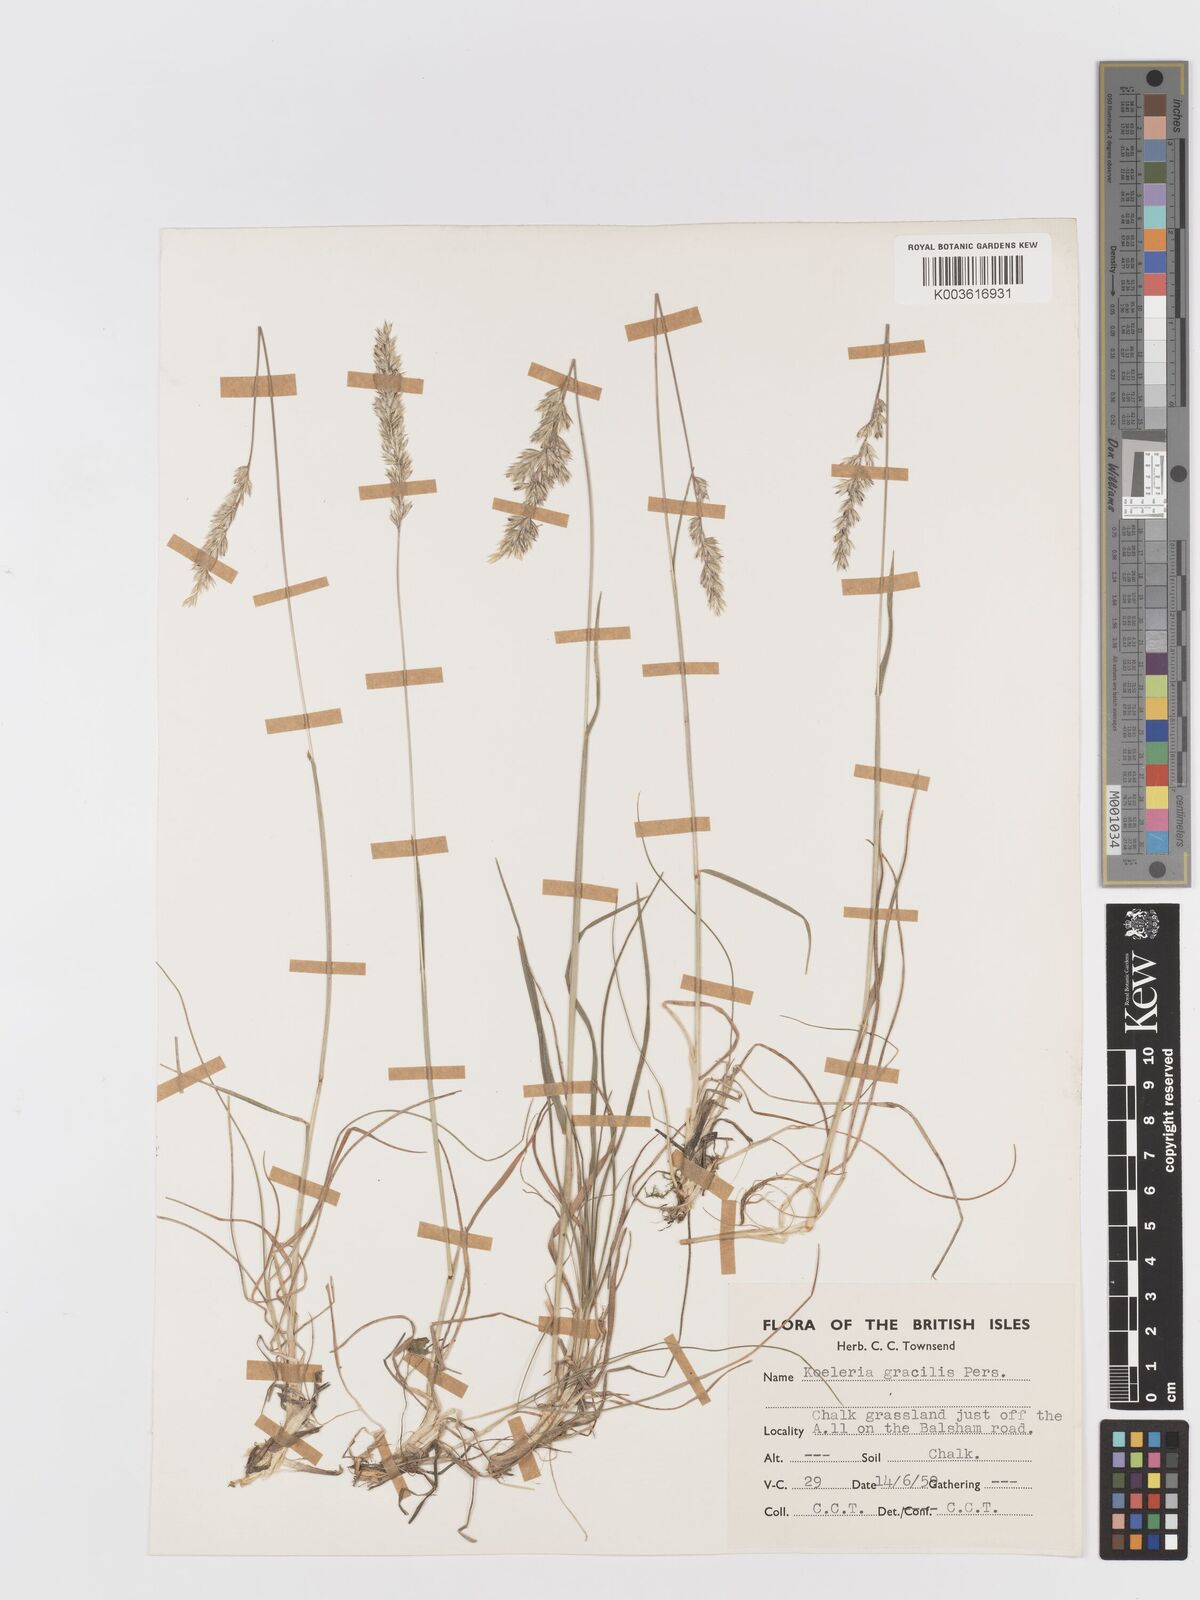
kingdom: Plantae
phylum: Tracheophyta
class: Liliopsida
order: Poales
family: Poaceae
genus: Koeleria
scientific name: Koeleria macrantha
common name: Crested hair-grass
